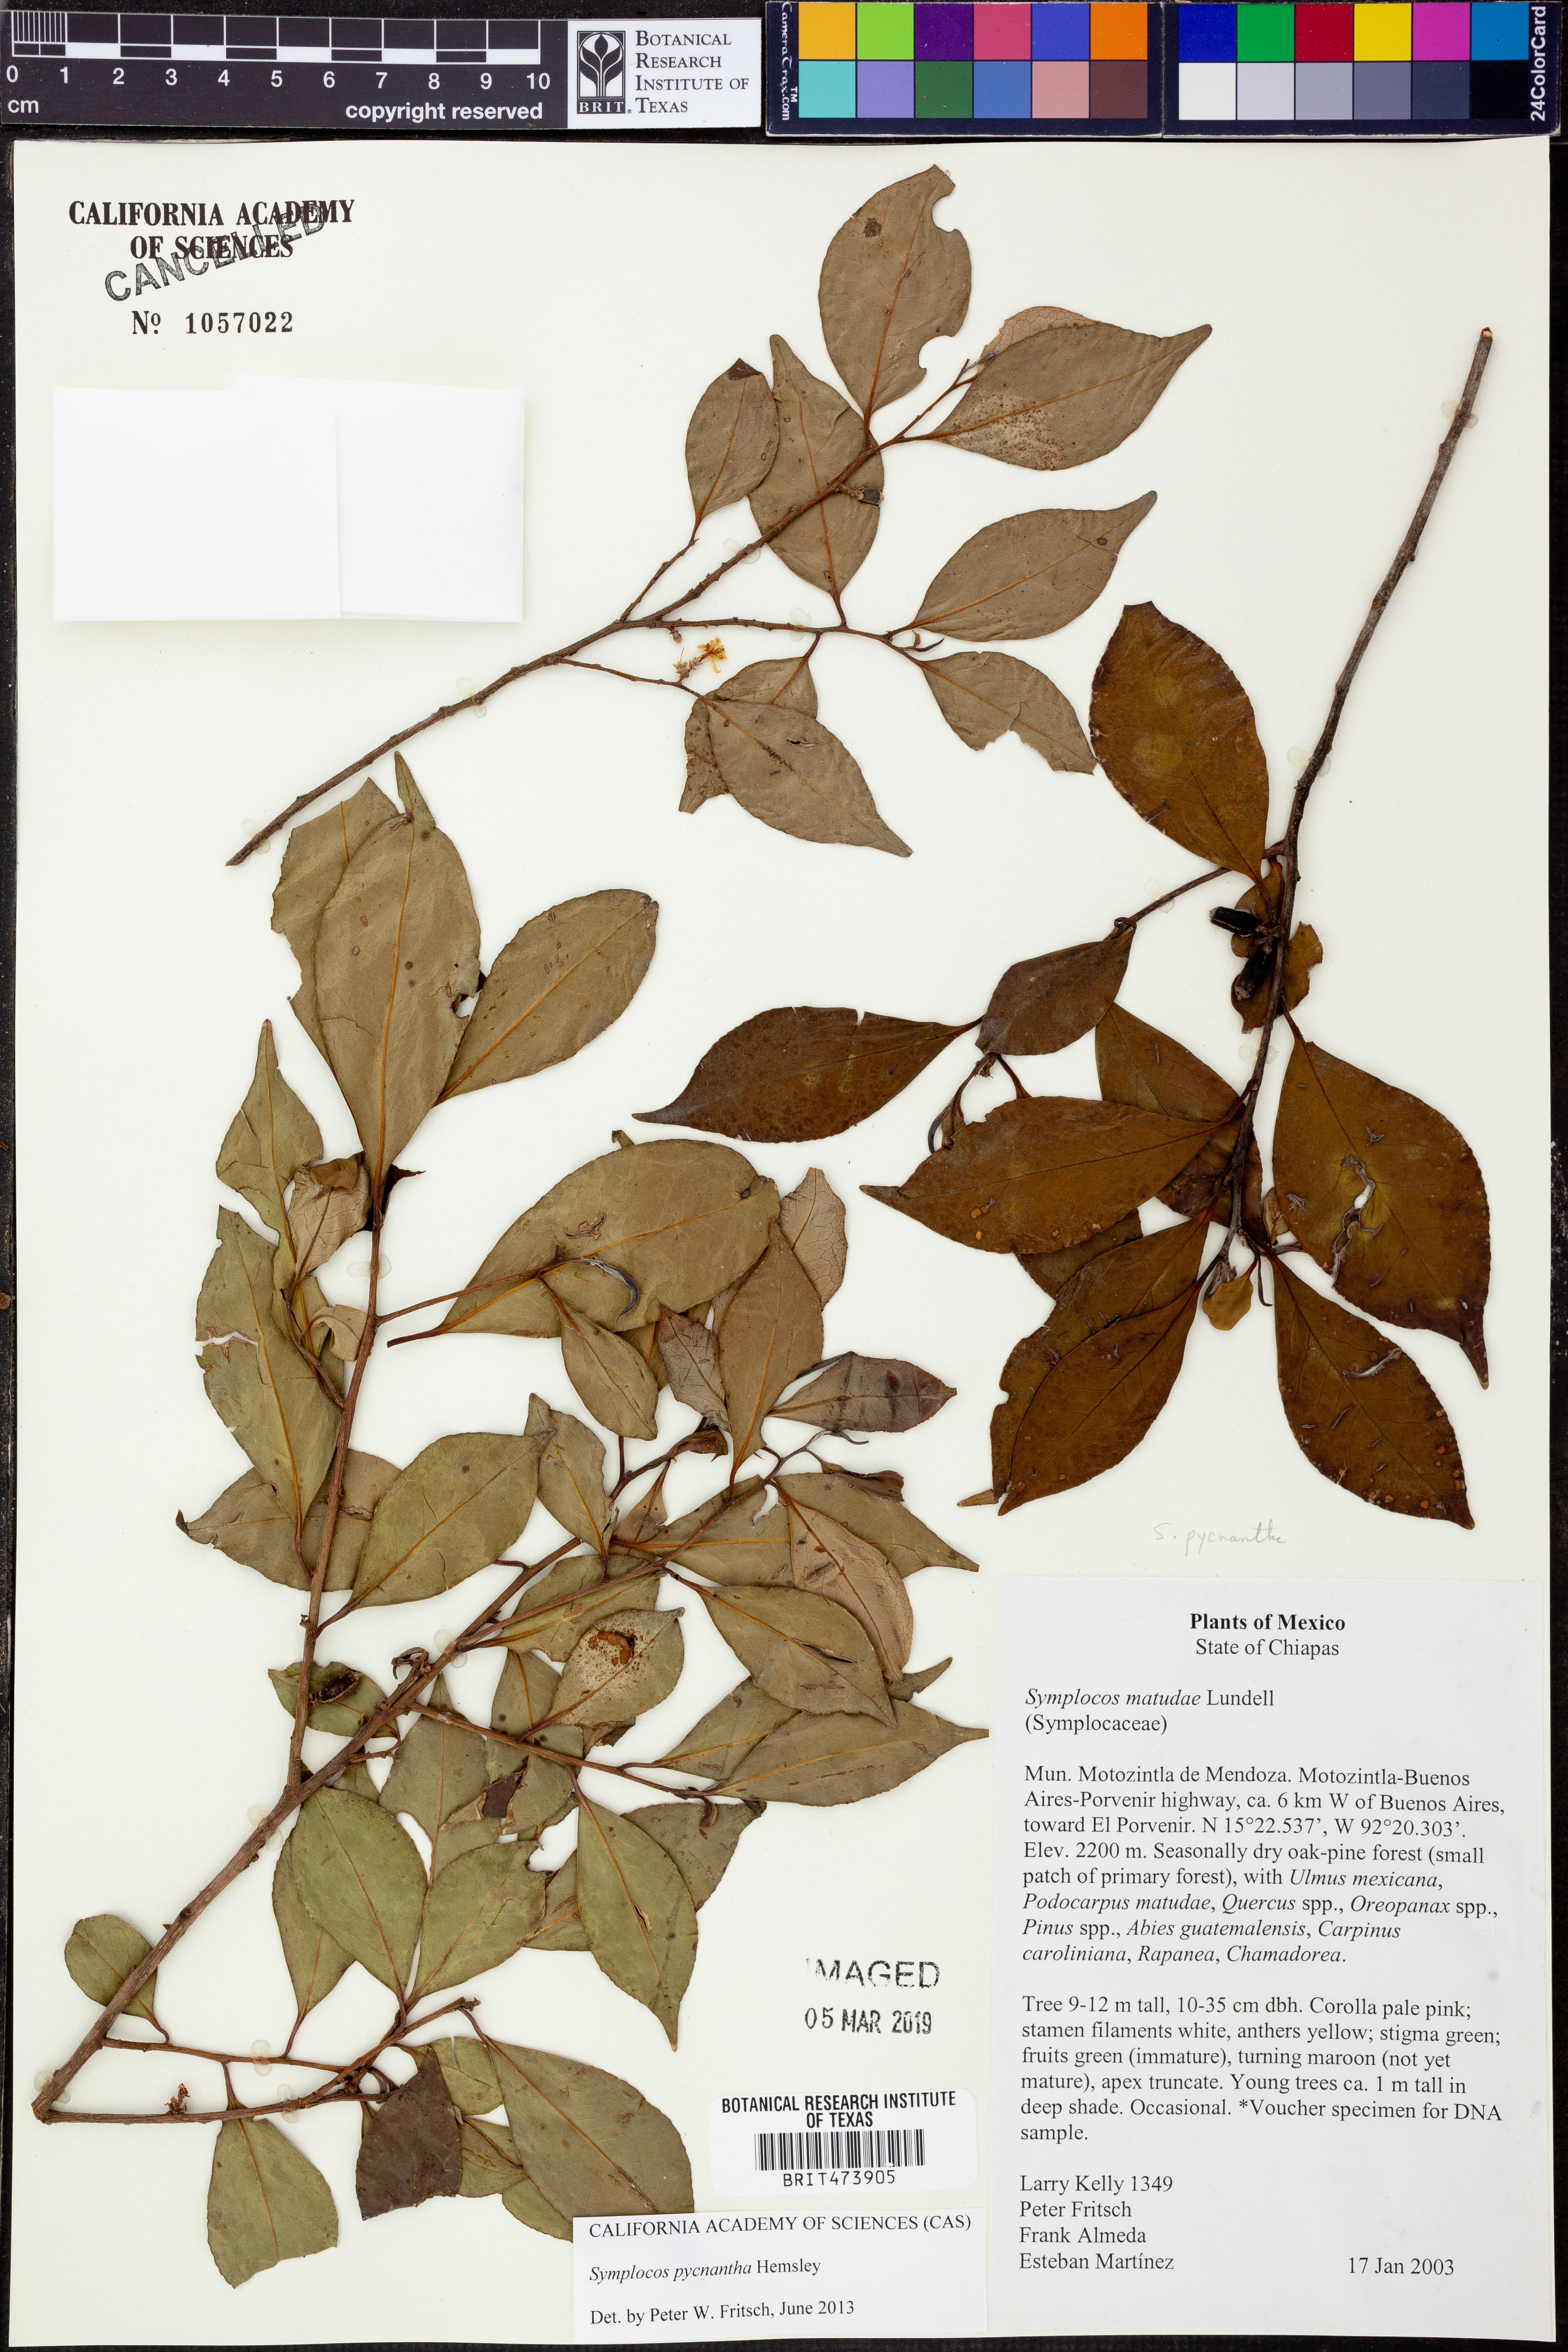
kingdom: Plantae
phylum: Tracheophyta
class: Magnoliopsida
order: Ericales
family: Symplocaceae
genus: Symplocos
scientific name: Symplocos pycnantha
